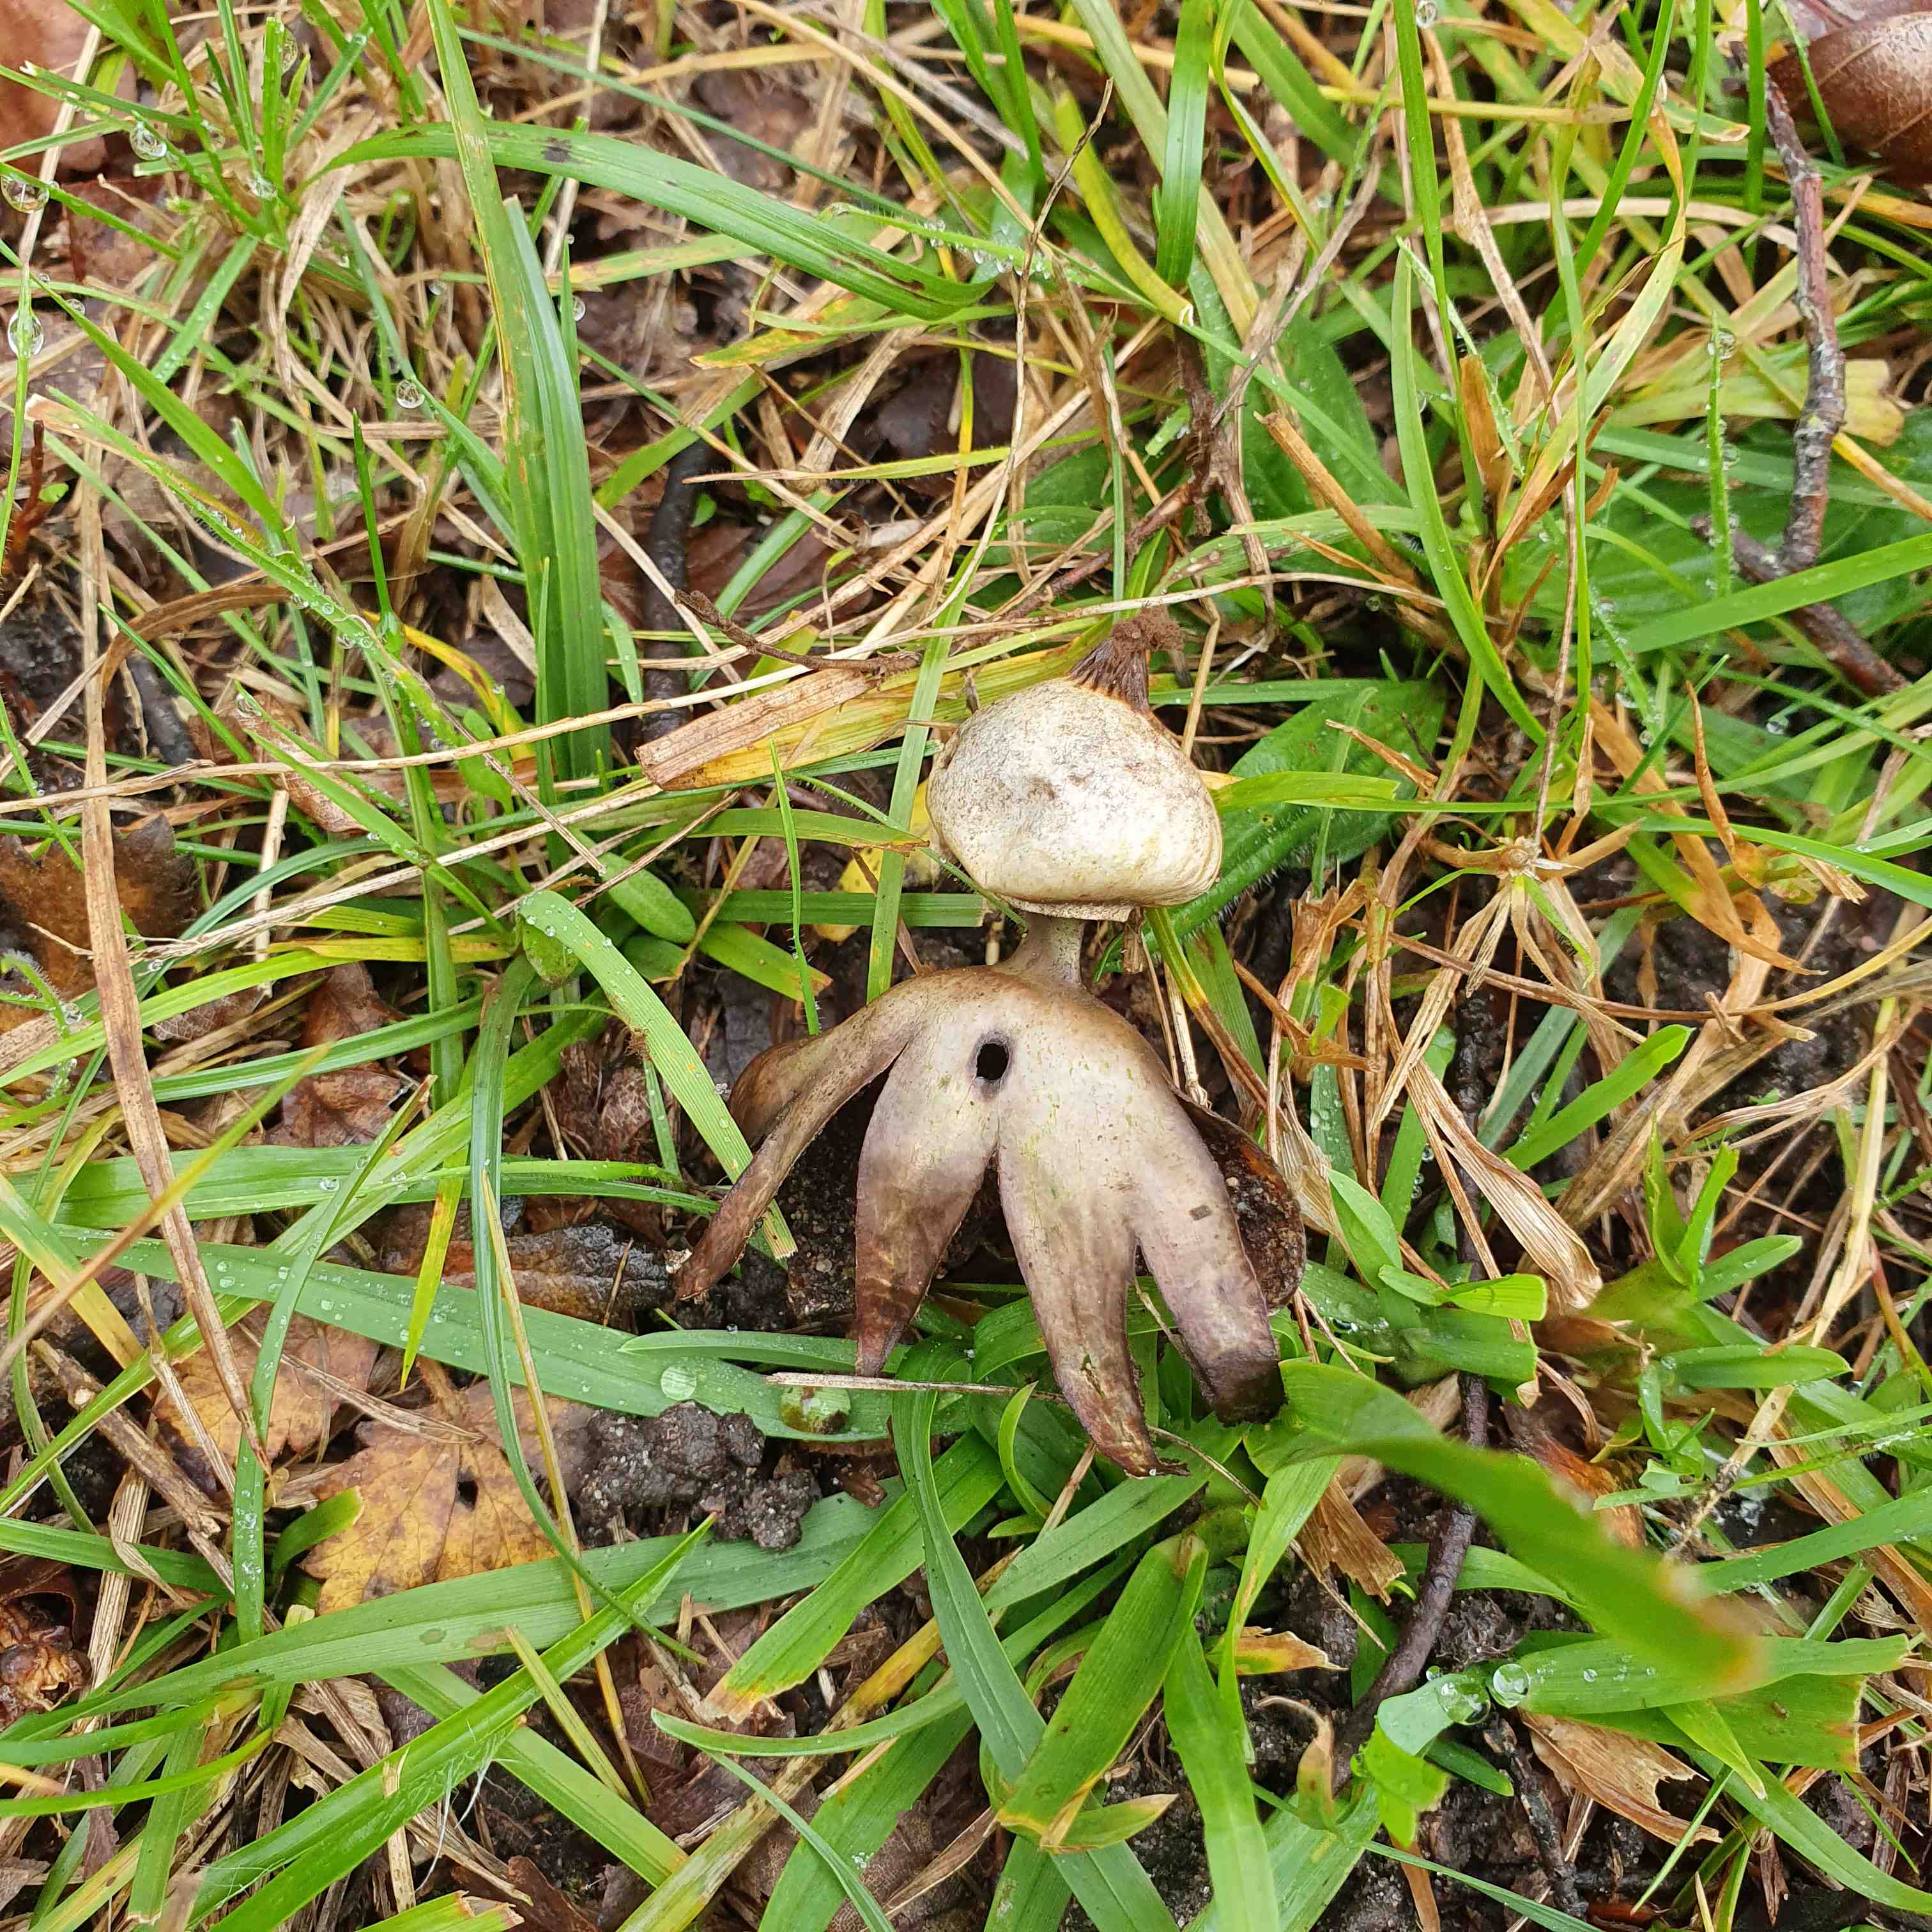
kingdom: Fungi
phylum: Basidiomycota
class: Agaricomycetes
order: Geastrales
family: Geastraceae
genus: Geastrum
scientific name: Geastrum striatum
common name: krave-stjernebold
